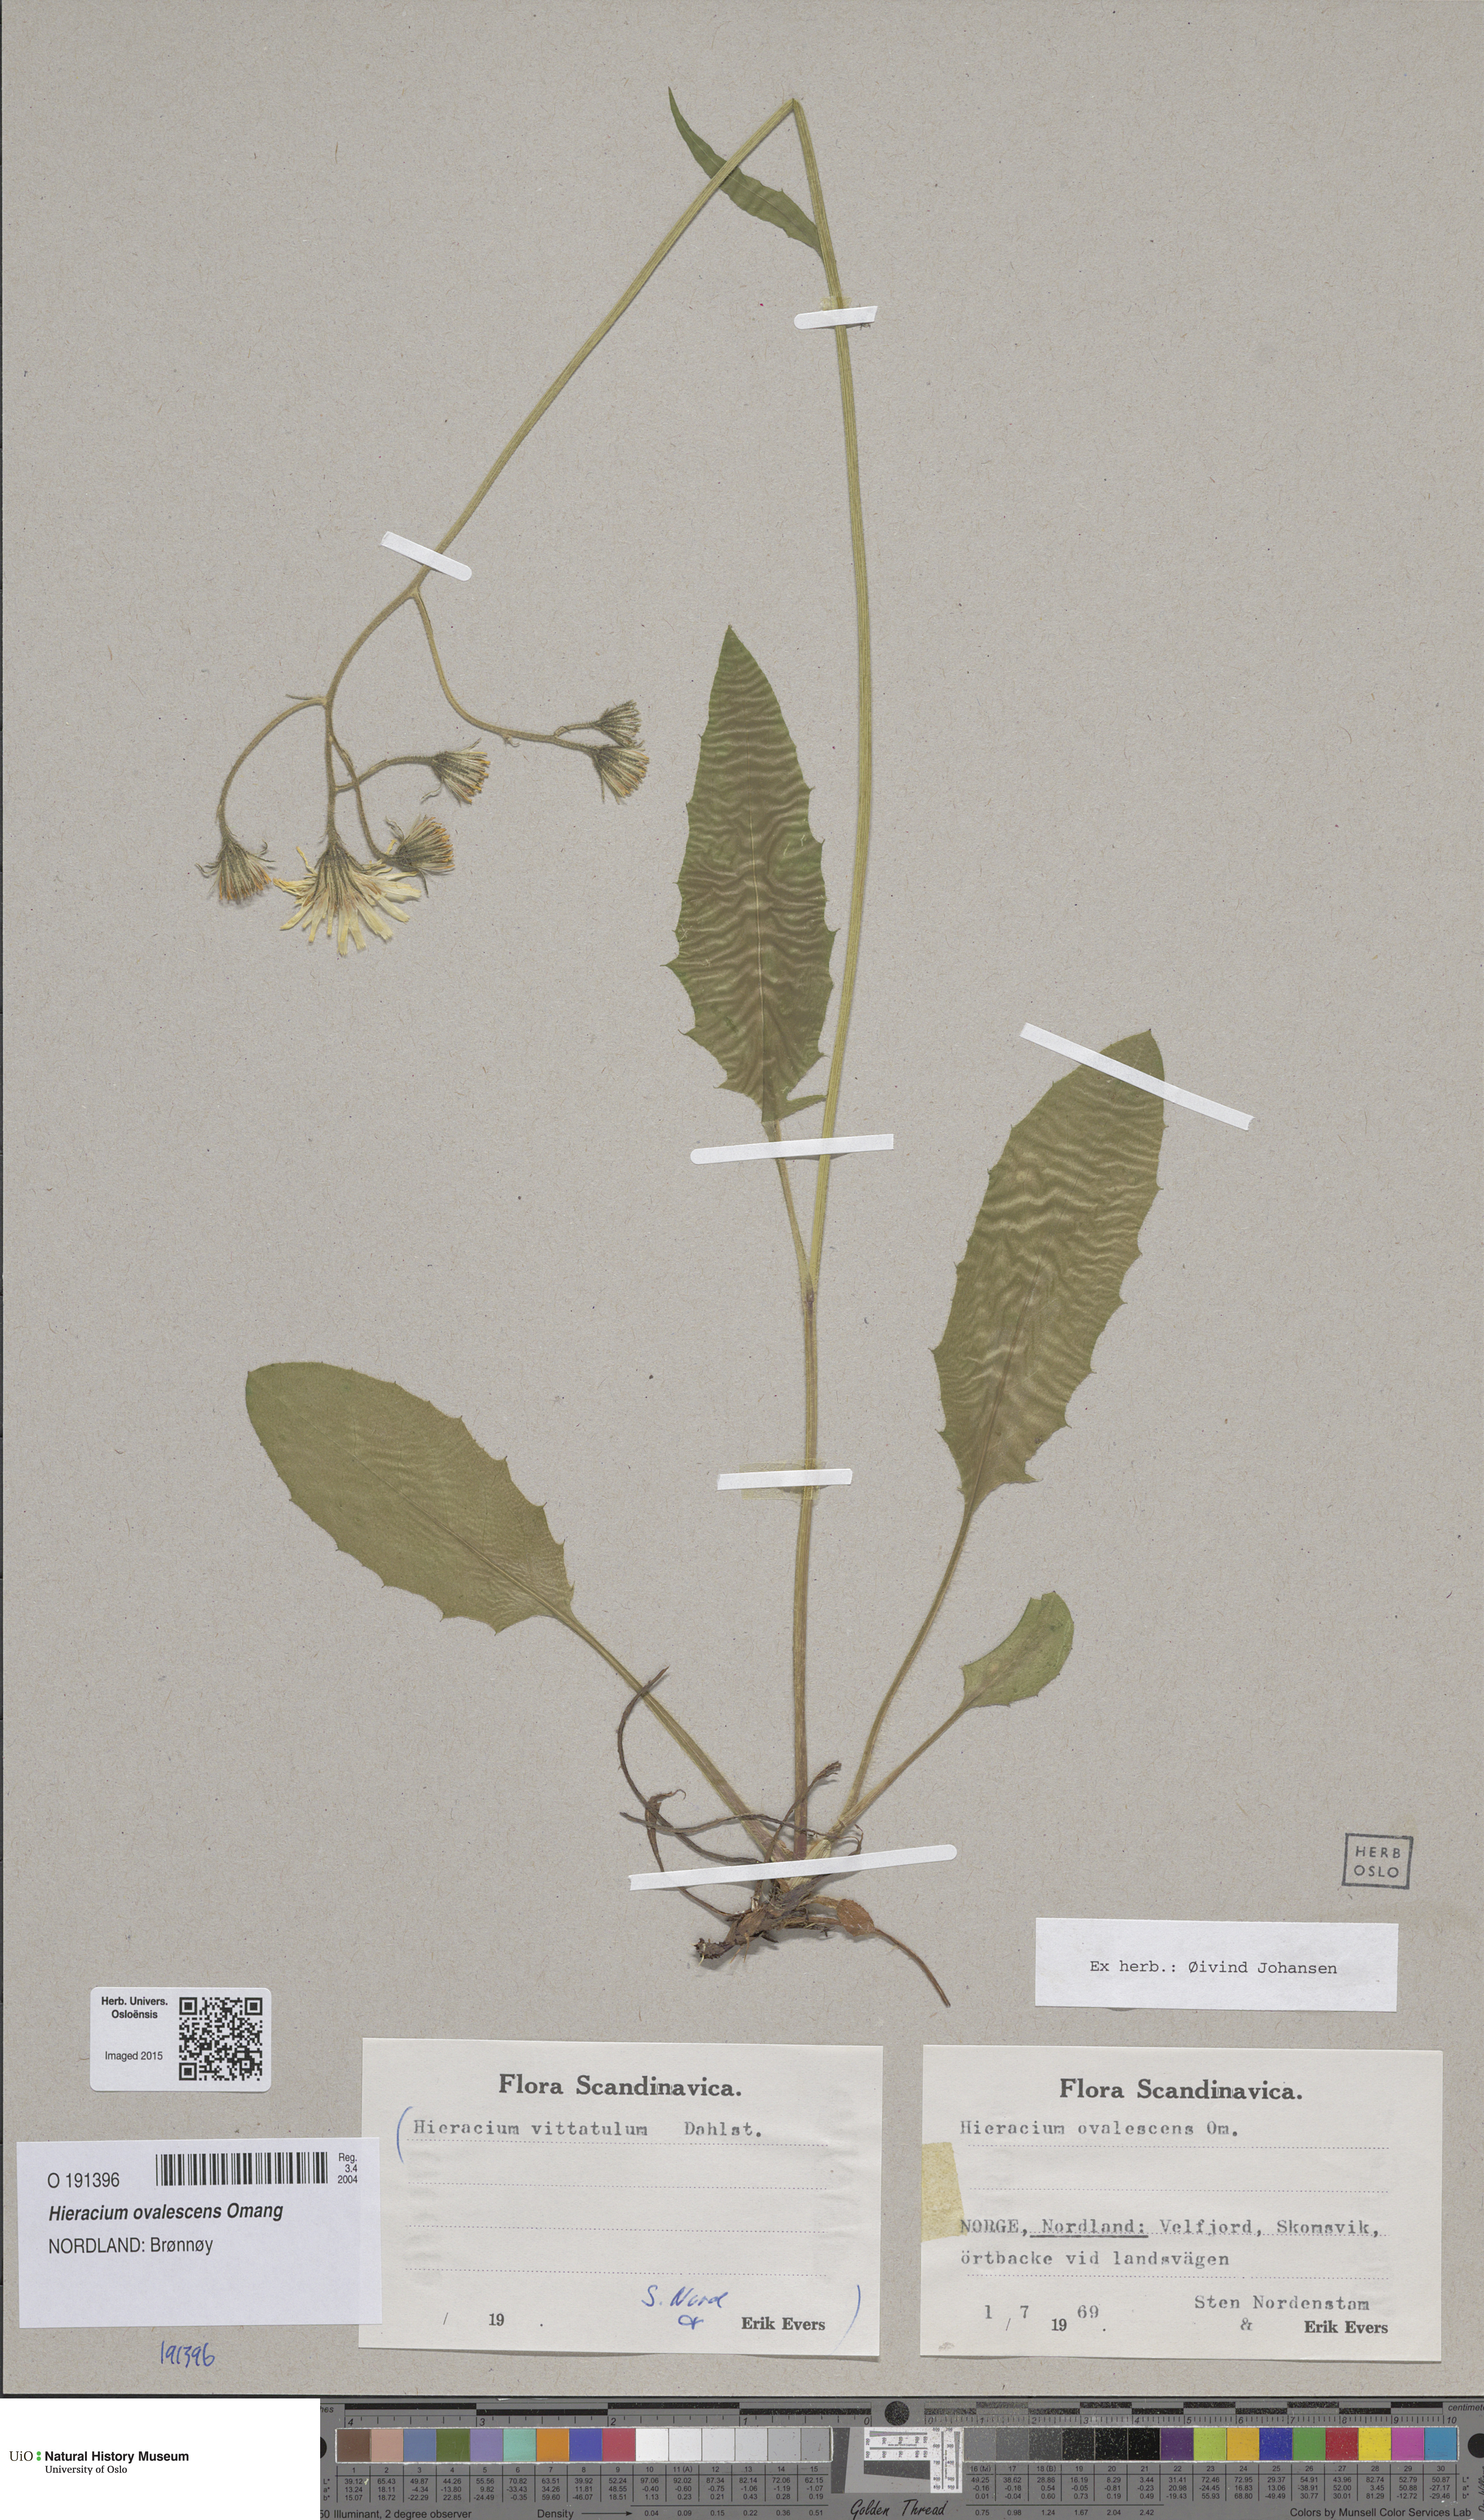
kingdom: Plantae
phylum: Tracheophyta
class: Magnoliopsida
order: Asterales
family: Asteraceae
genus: Hieracium
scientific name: Hieracium ovalescens
